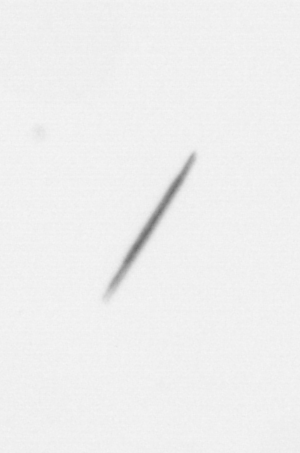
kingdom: Chromista
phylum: Ochrophyta
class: Bacillariophyceae
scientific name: Bacillariophyceae
